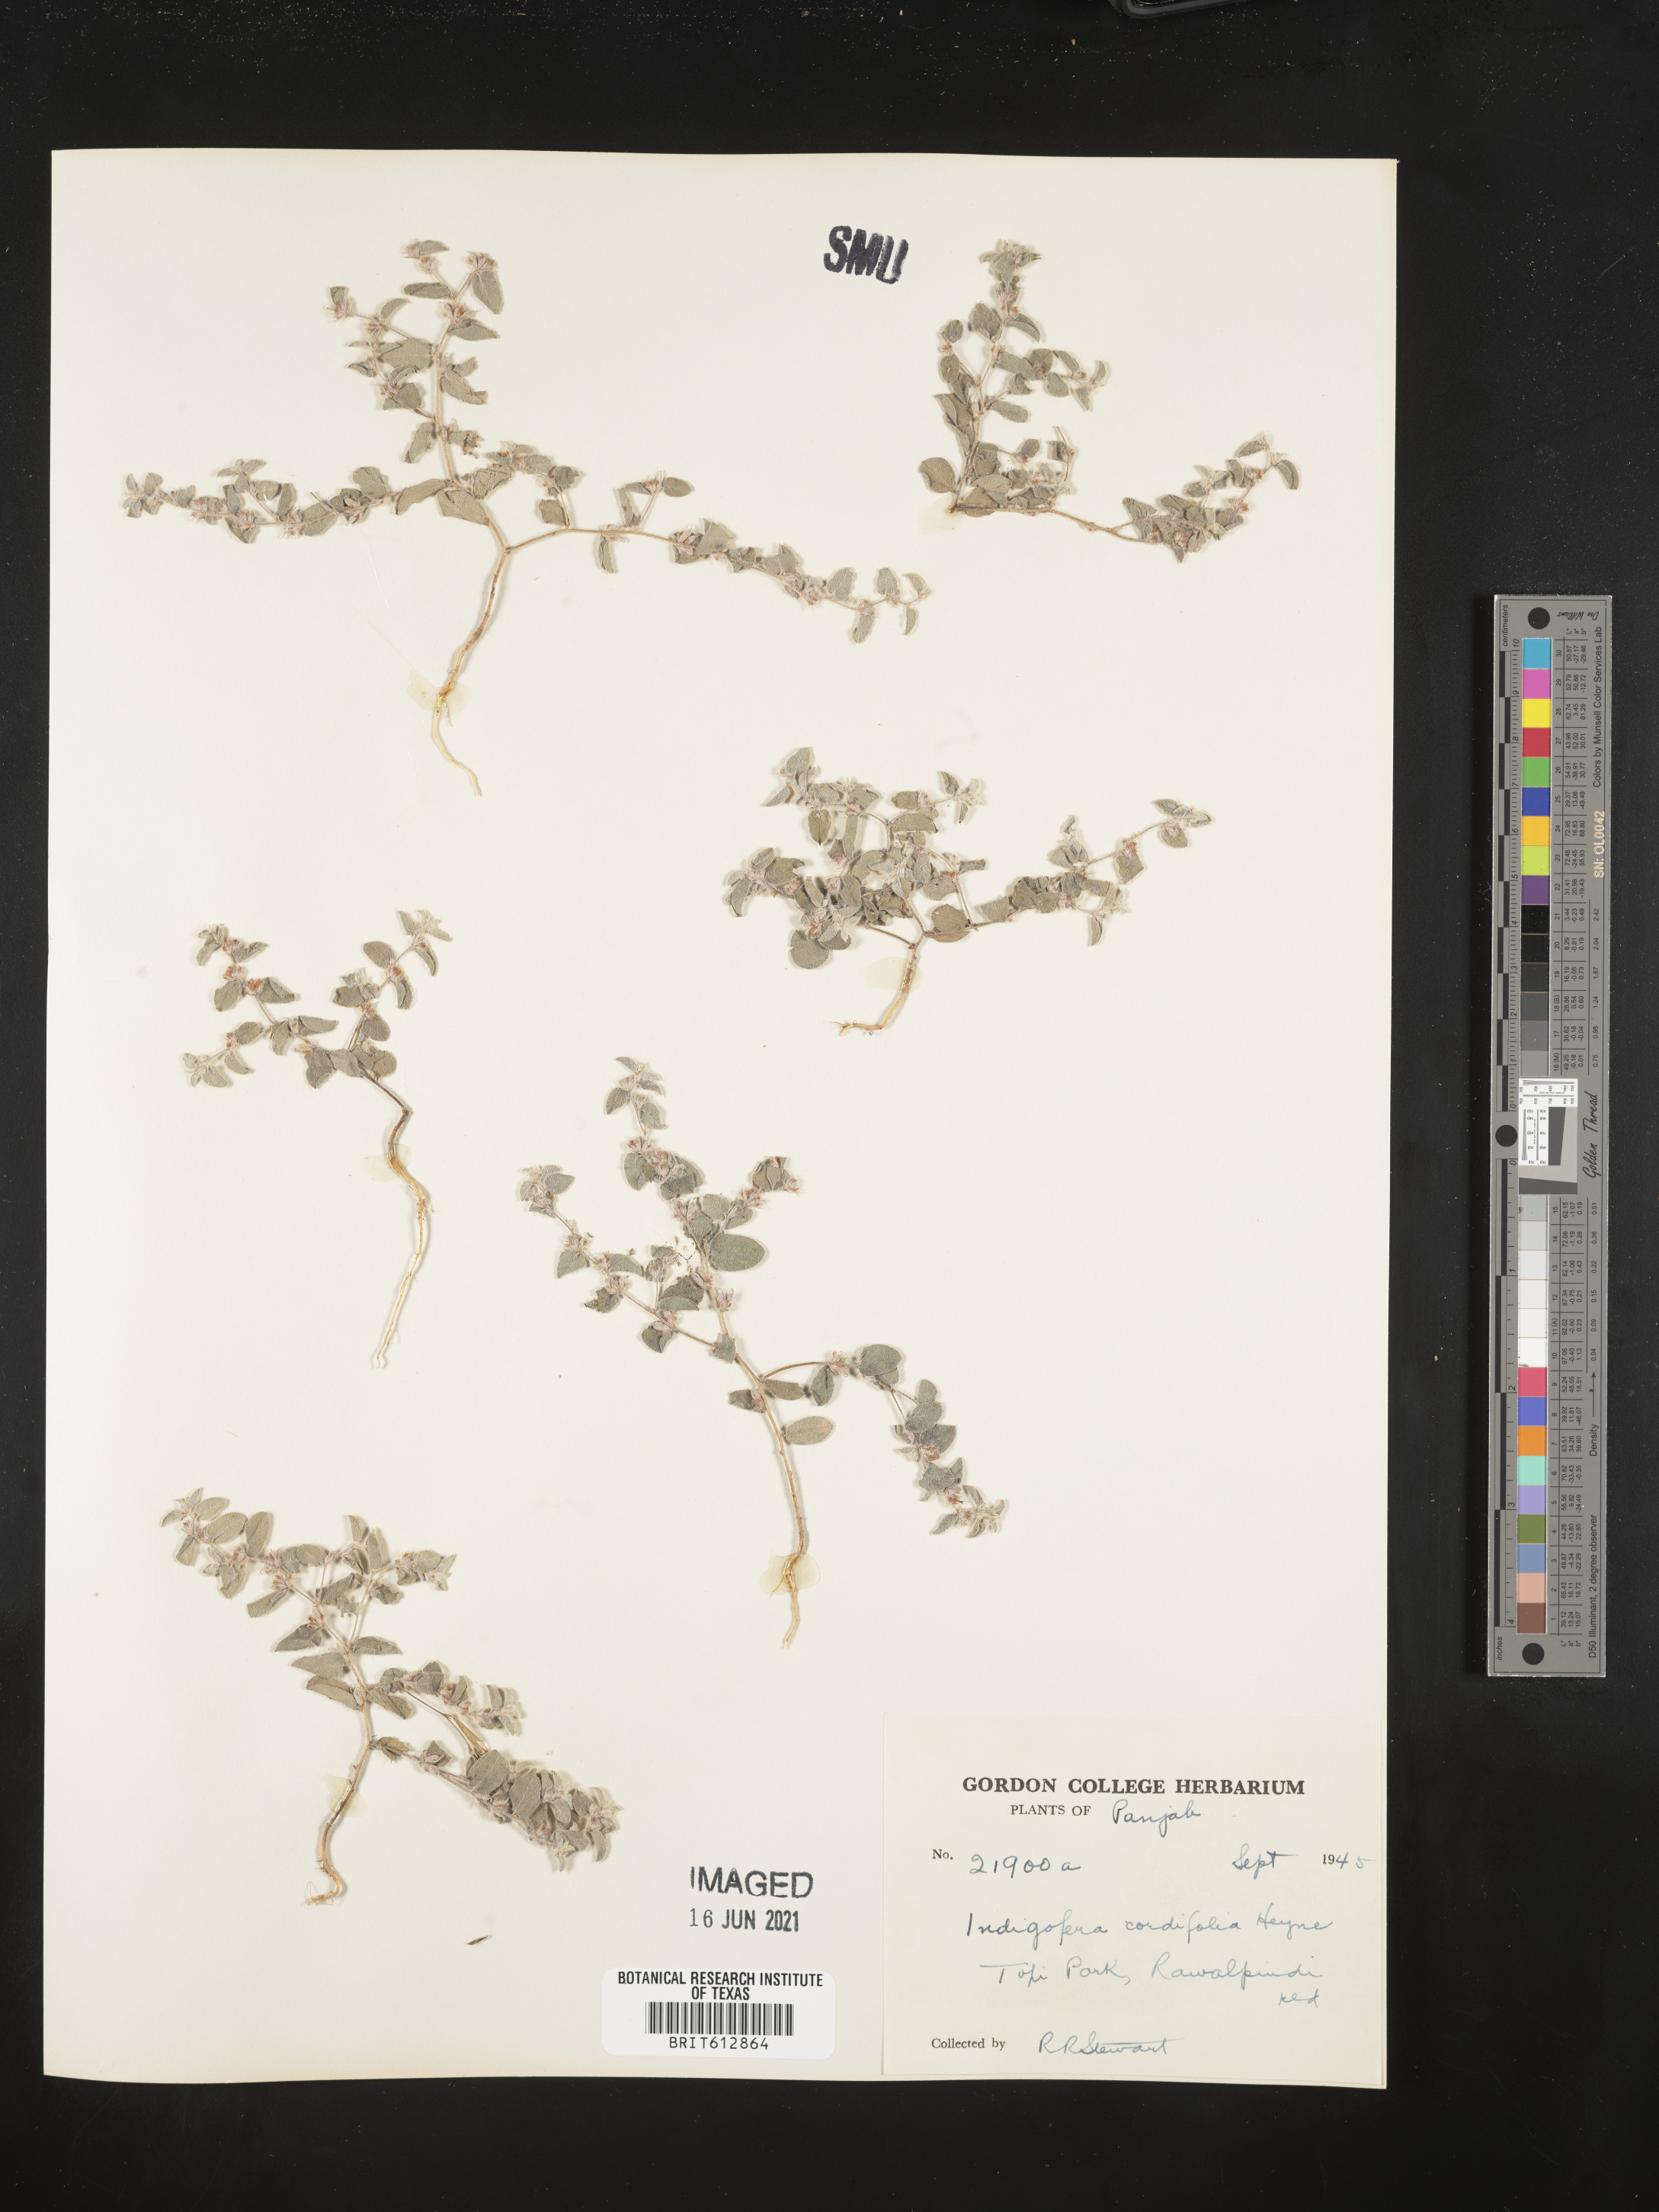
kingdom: Plantae
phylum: Tracheophyta
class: Magnoliopsida
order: Fabales
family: Fabaceae
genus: Indigofera
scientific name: Indigofera cordifolia
